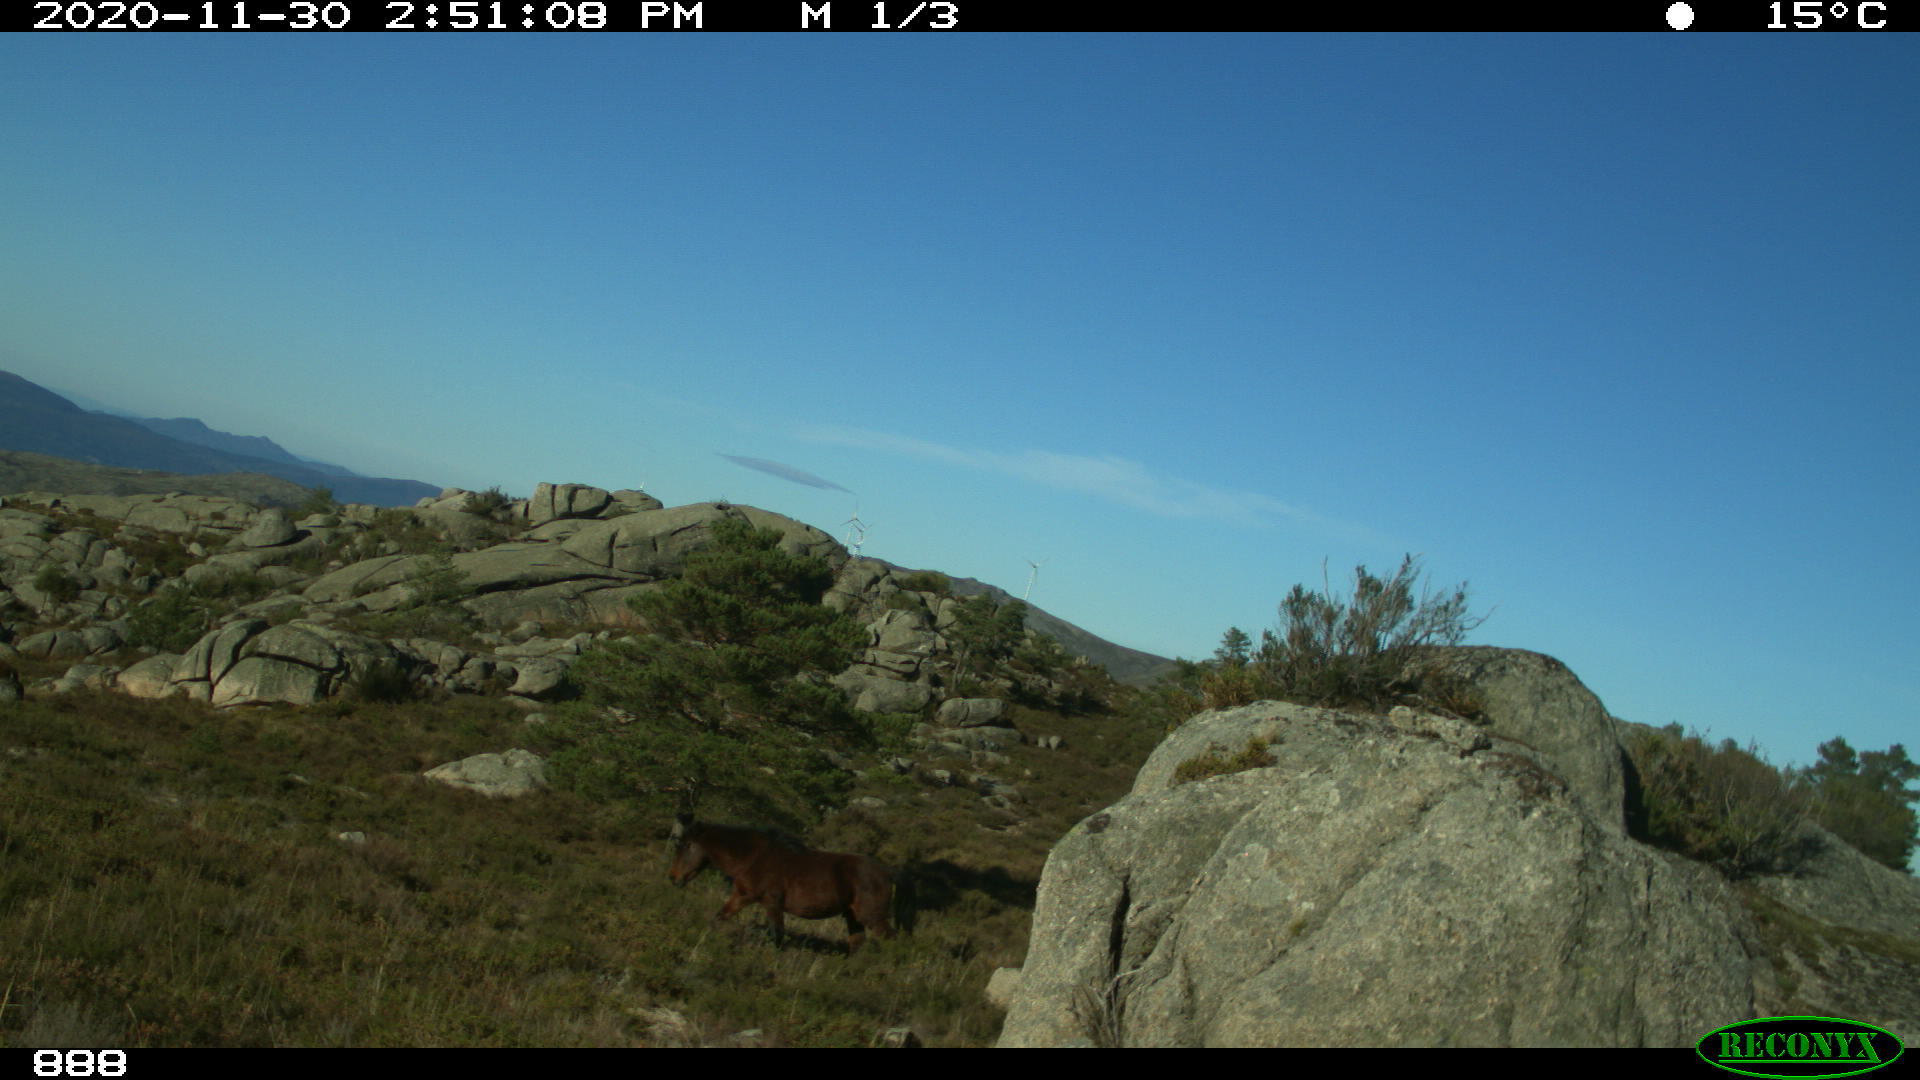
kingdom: Animalia
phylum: Chordata
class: Mammalia
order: Perissodactyla
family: Equidae
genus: Equus
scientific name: Equus caballus
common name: Horse
